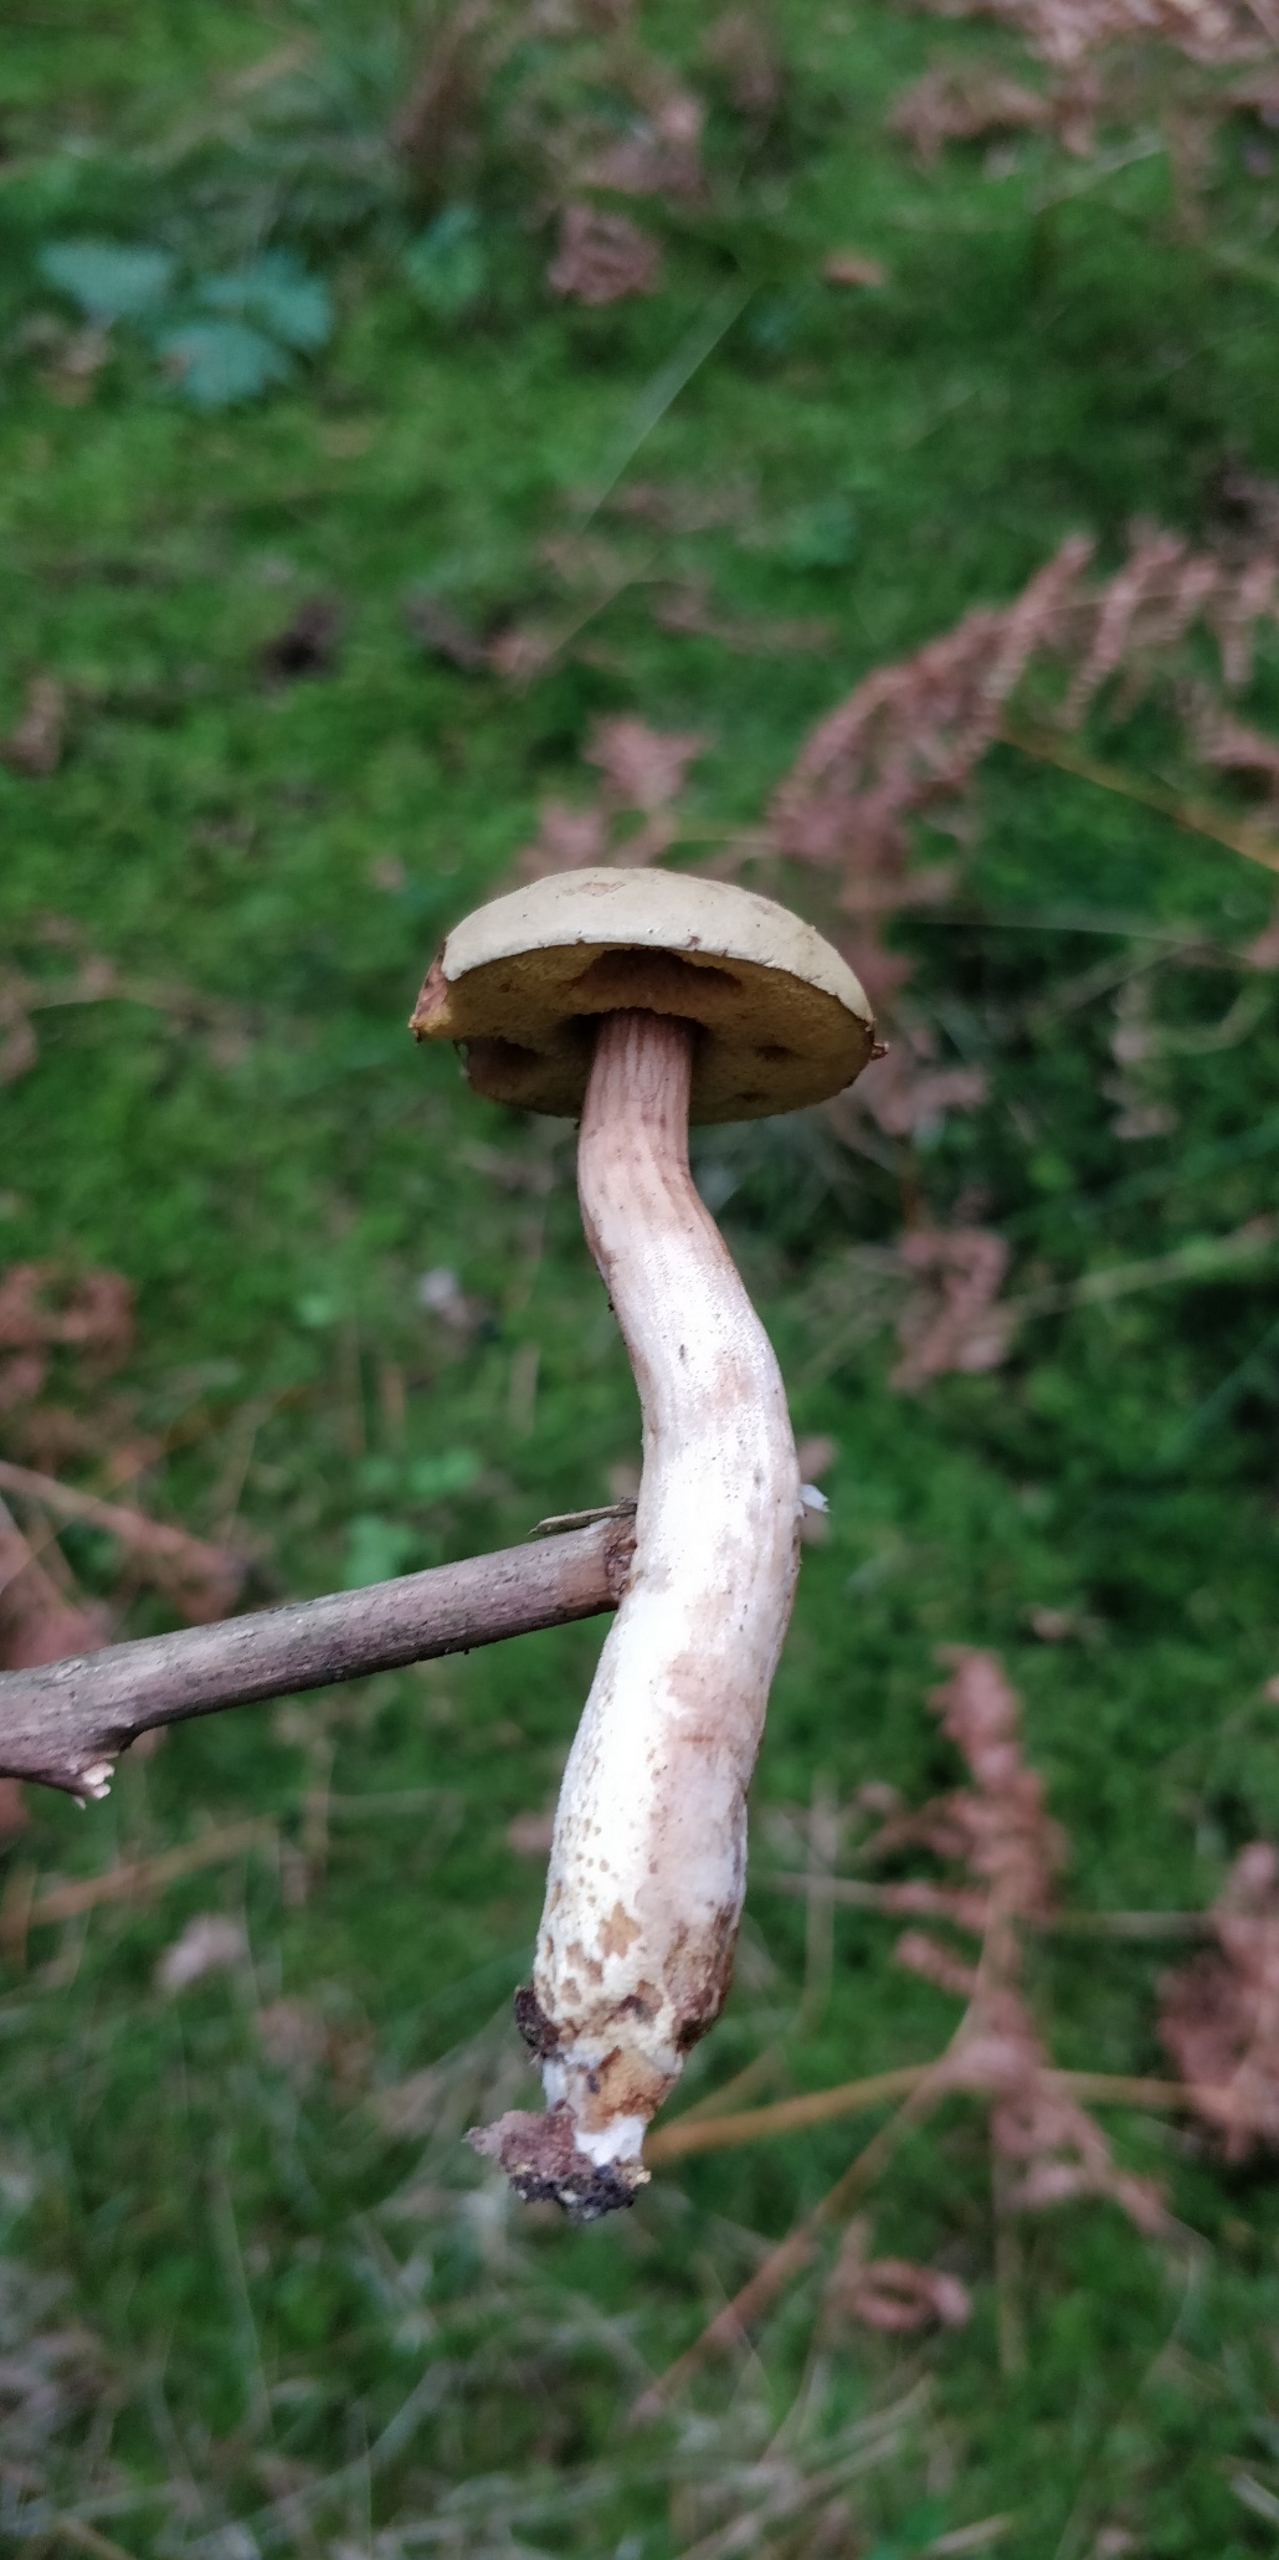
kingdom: Fungi
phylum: Basidiomycota
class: Agaricomycetes
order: Boletales
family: Boletaceae
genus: Xerocomus
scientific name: Xerocomus subtomentosus
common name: Filtet rørhat
